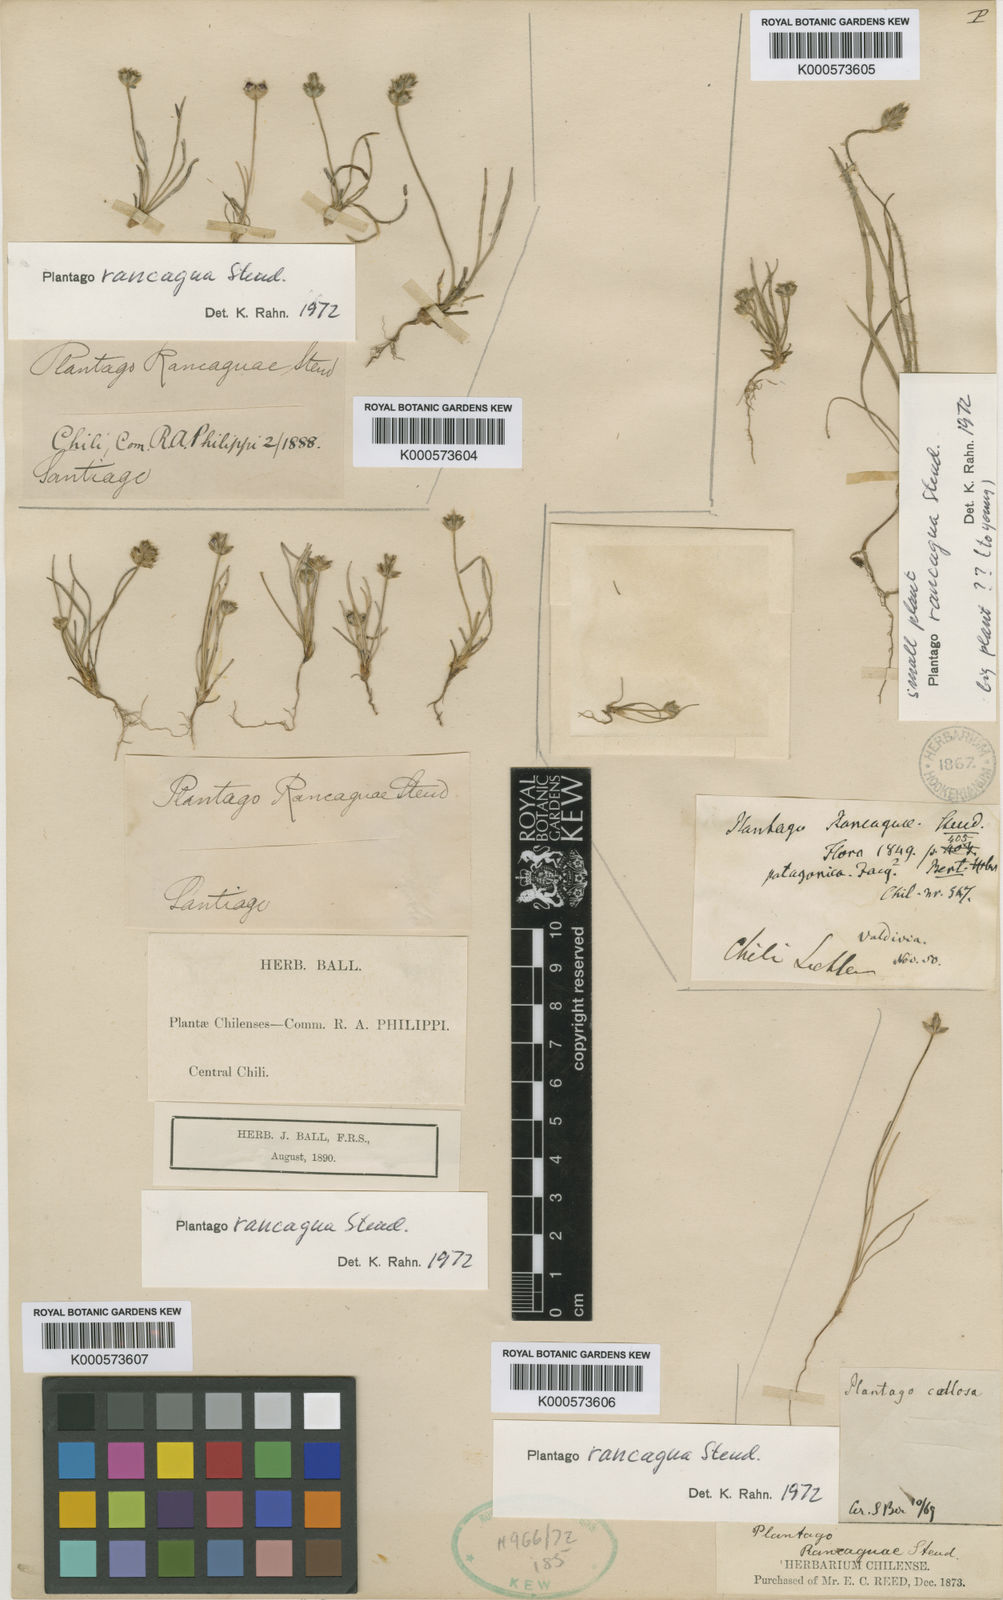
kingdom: Plantae
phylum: Tracheophyta
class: Magnoliopsida
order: Lamiales
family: Plantaginaceae
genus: Plantago
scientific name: Plantago rancaguae
